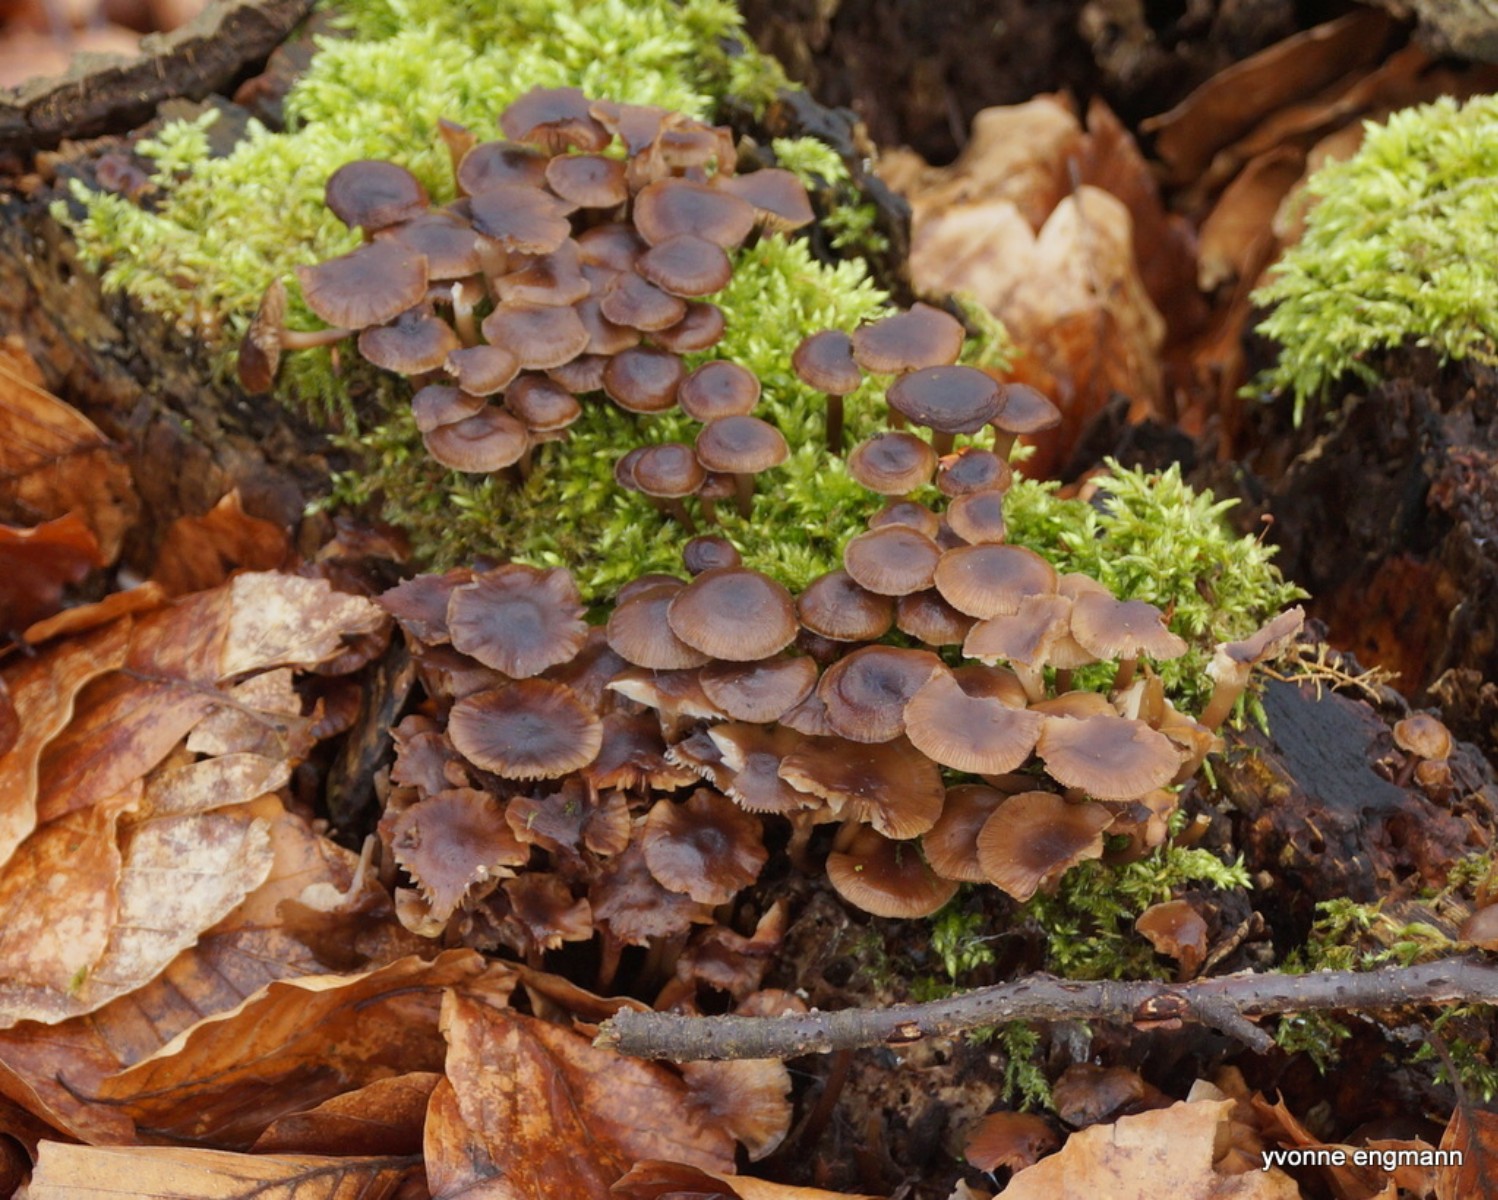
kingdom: Fungi
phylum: Basidiomycota
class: Agaricomycetes
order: Agaricales
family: Mycenaceae
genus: Mycena
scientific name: Mycena tintinnabulum
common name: vinter-huesvamp
